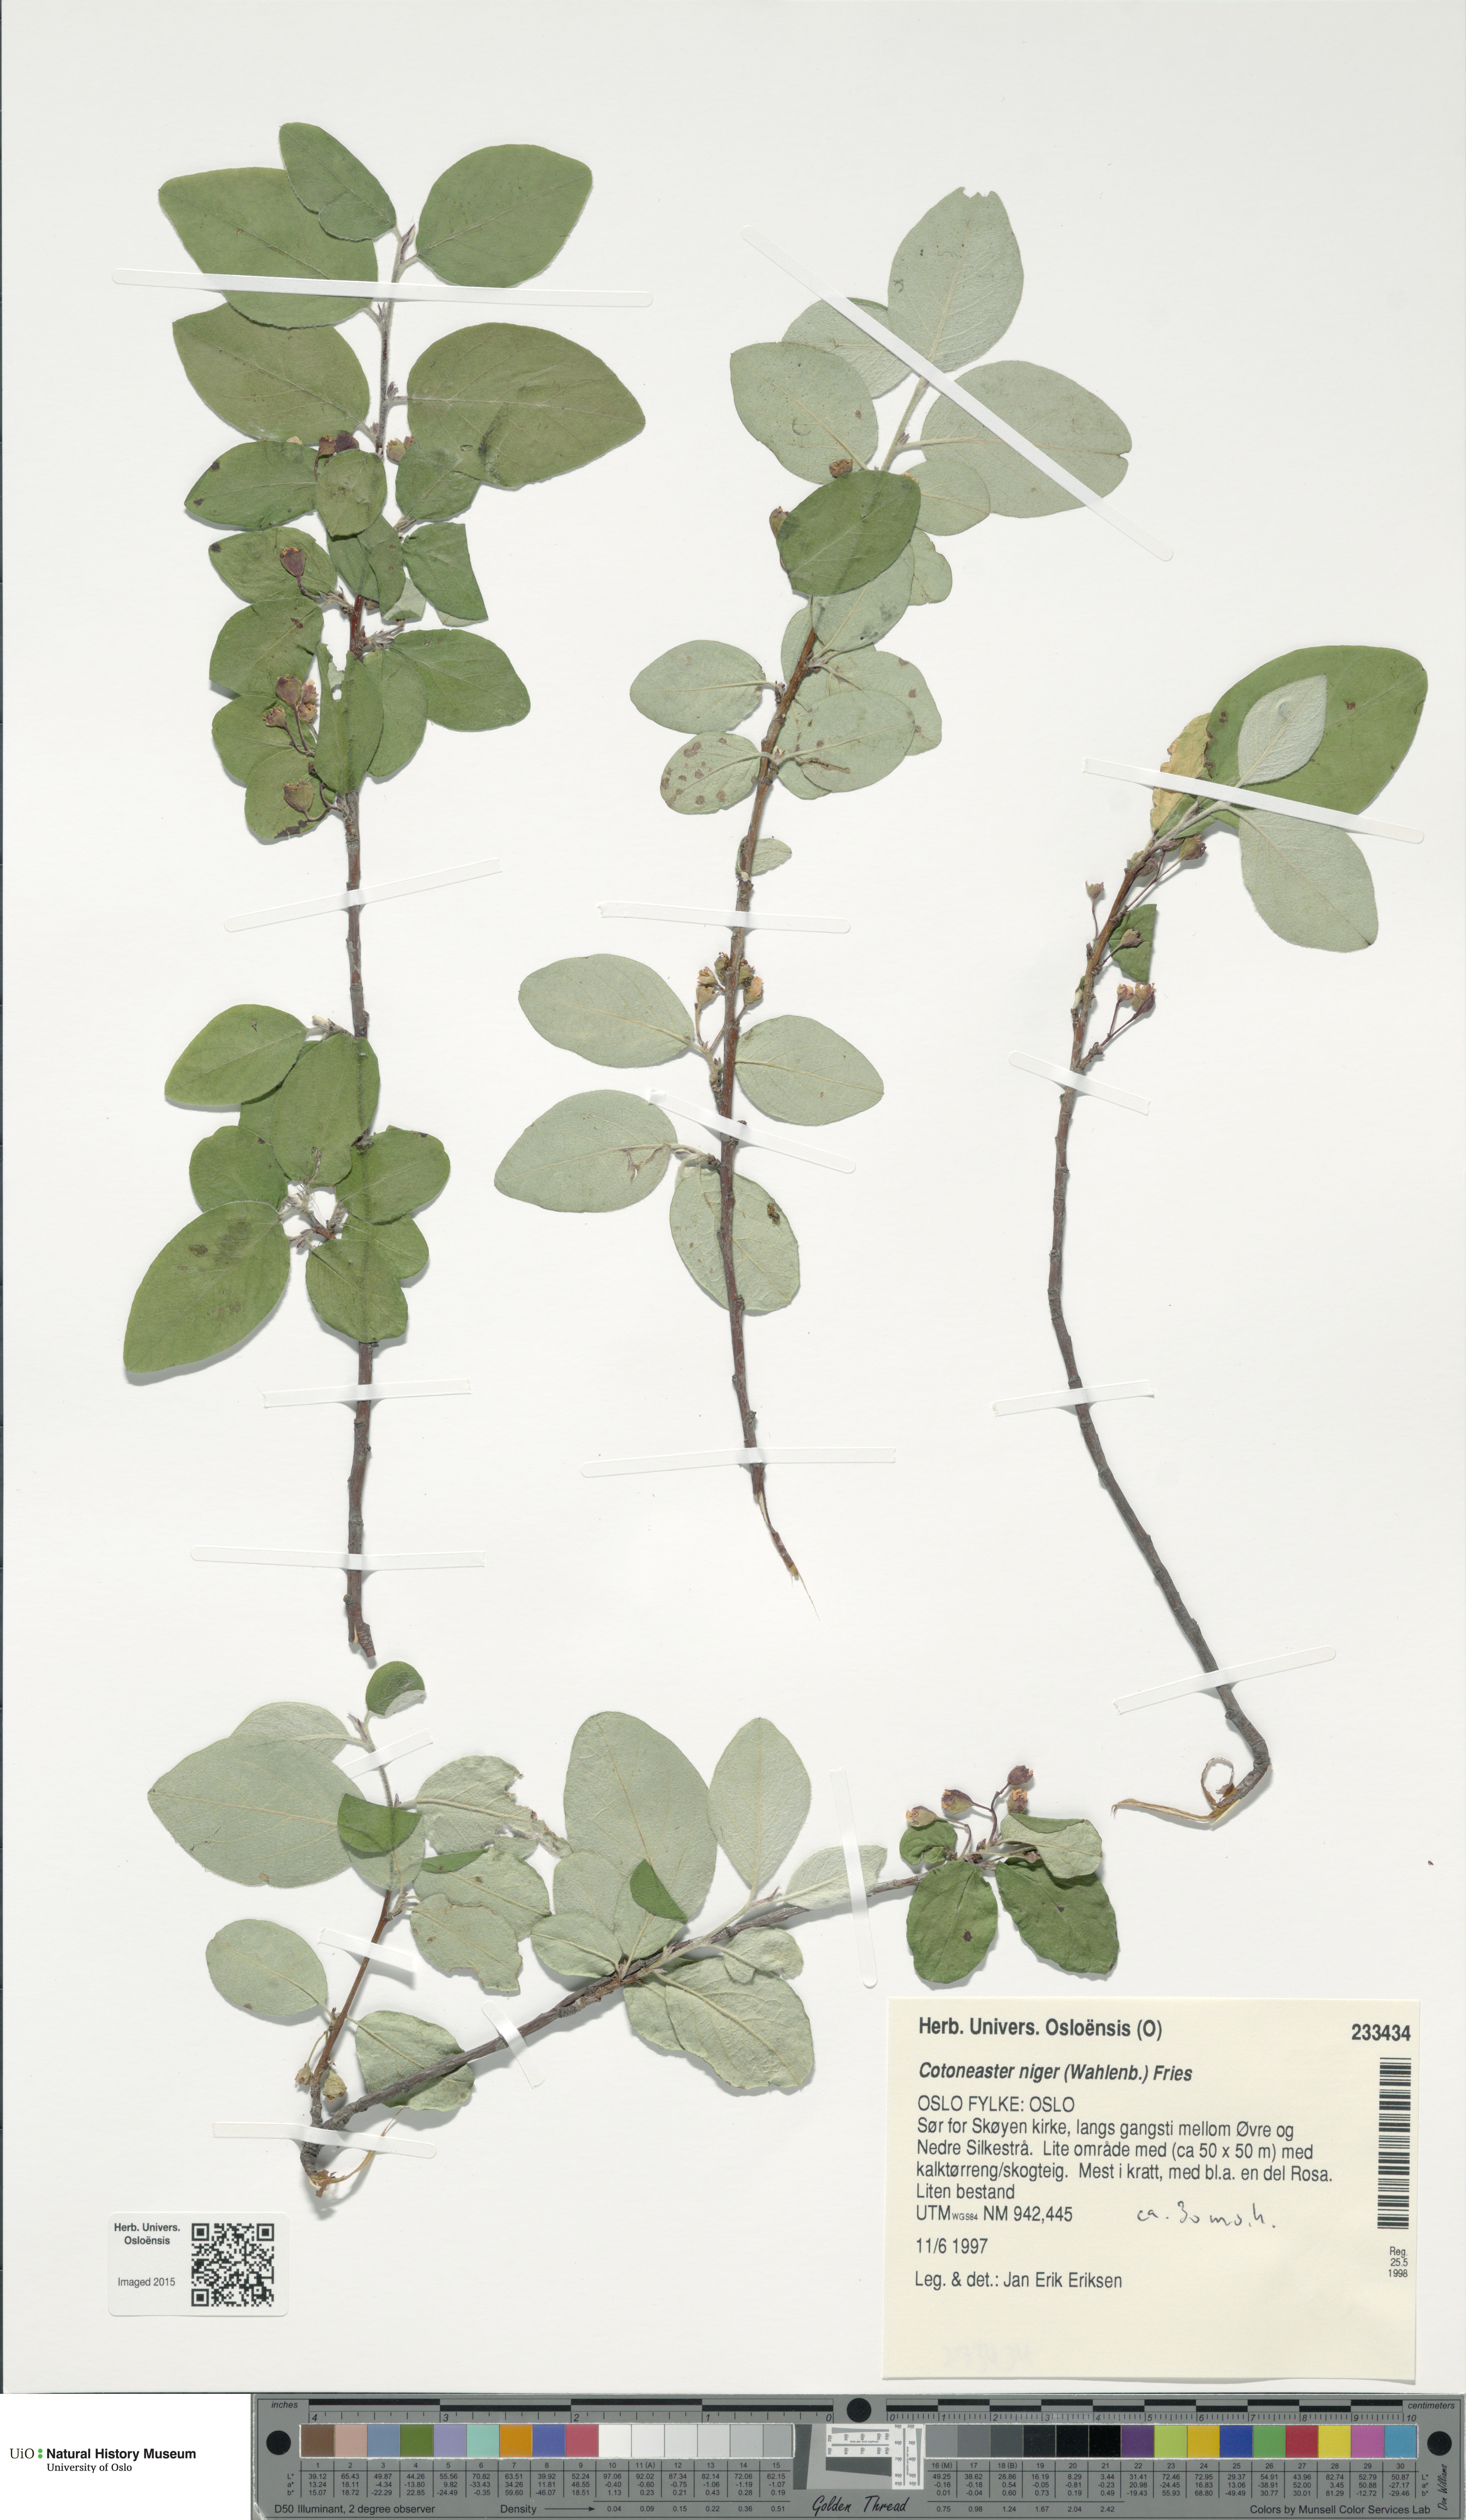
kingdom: Plantae
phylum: Tracheophyta
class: Magnoliopsida
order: Rosales
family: Rosaceae
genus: Cotoneaster
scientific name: Cotoneaster niger
